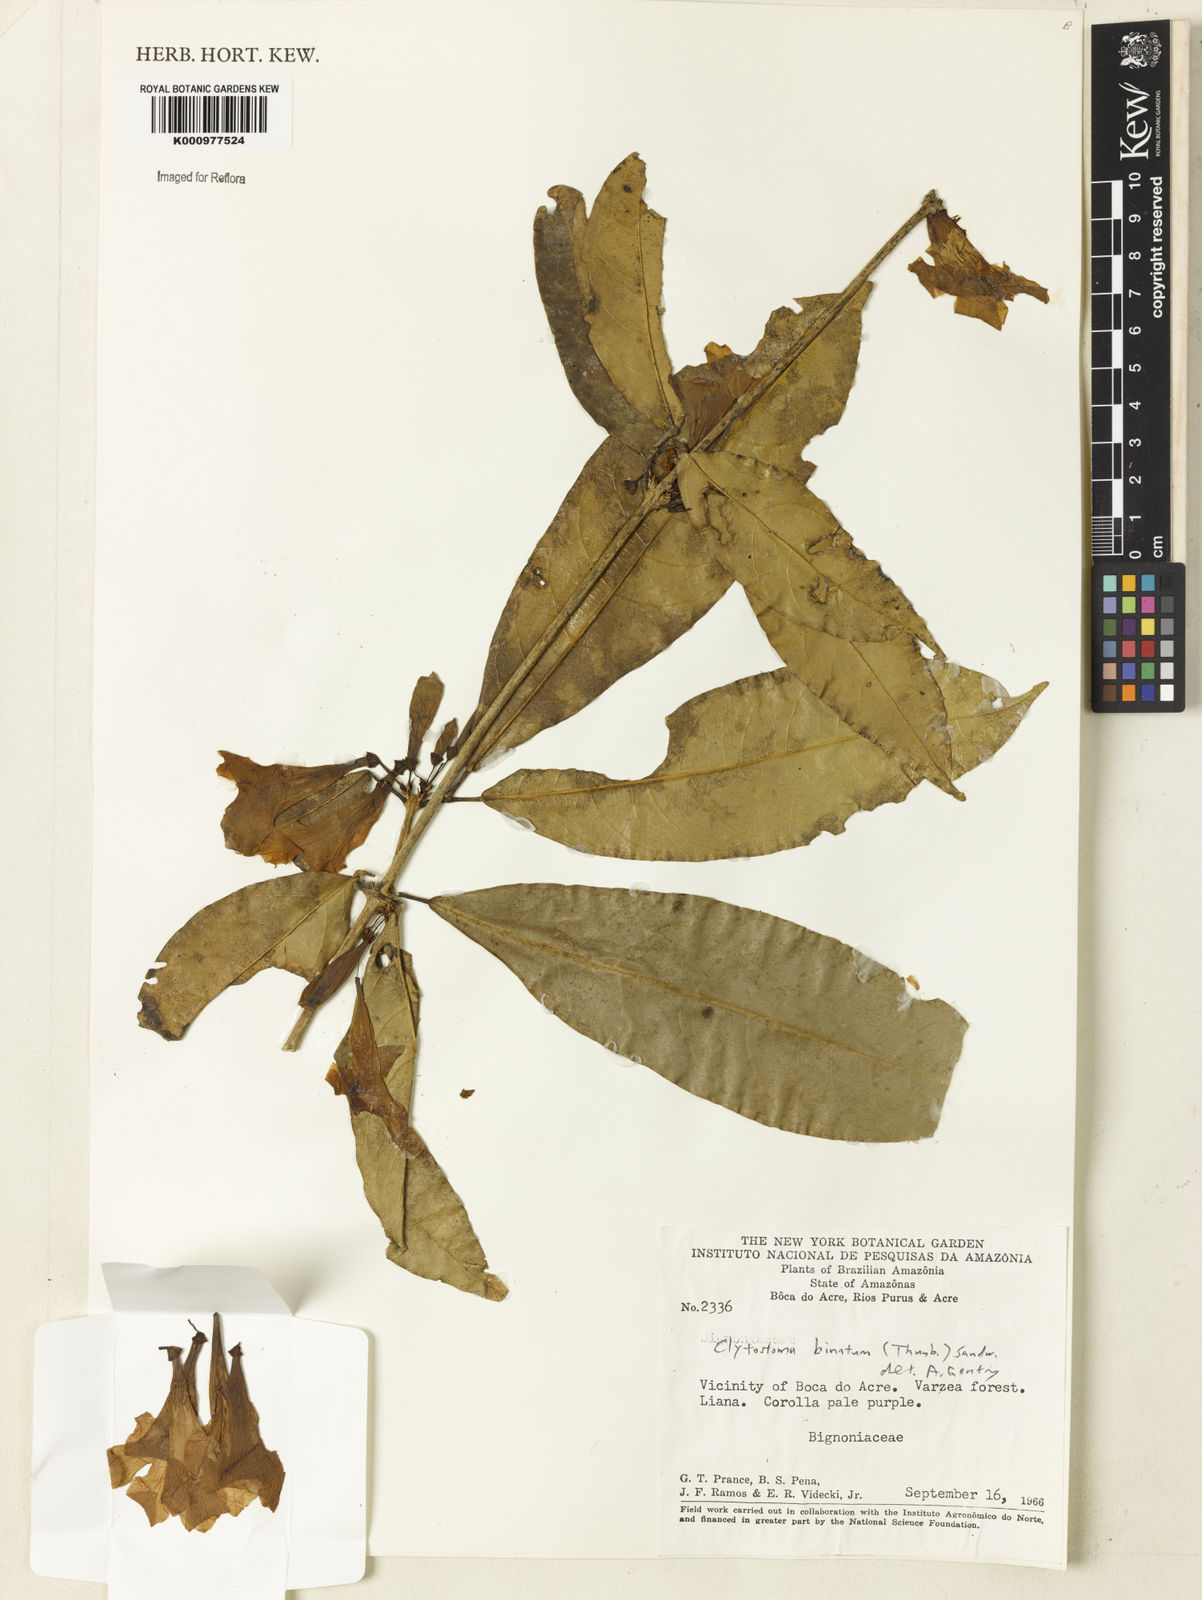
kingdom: Plantae
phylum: Tracheophyta
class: Magnoliopsida
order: Lamiales
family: Bignoniaceae
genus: Bignonia
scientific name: Bignonia binata
